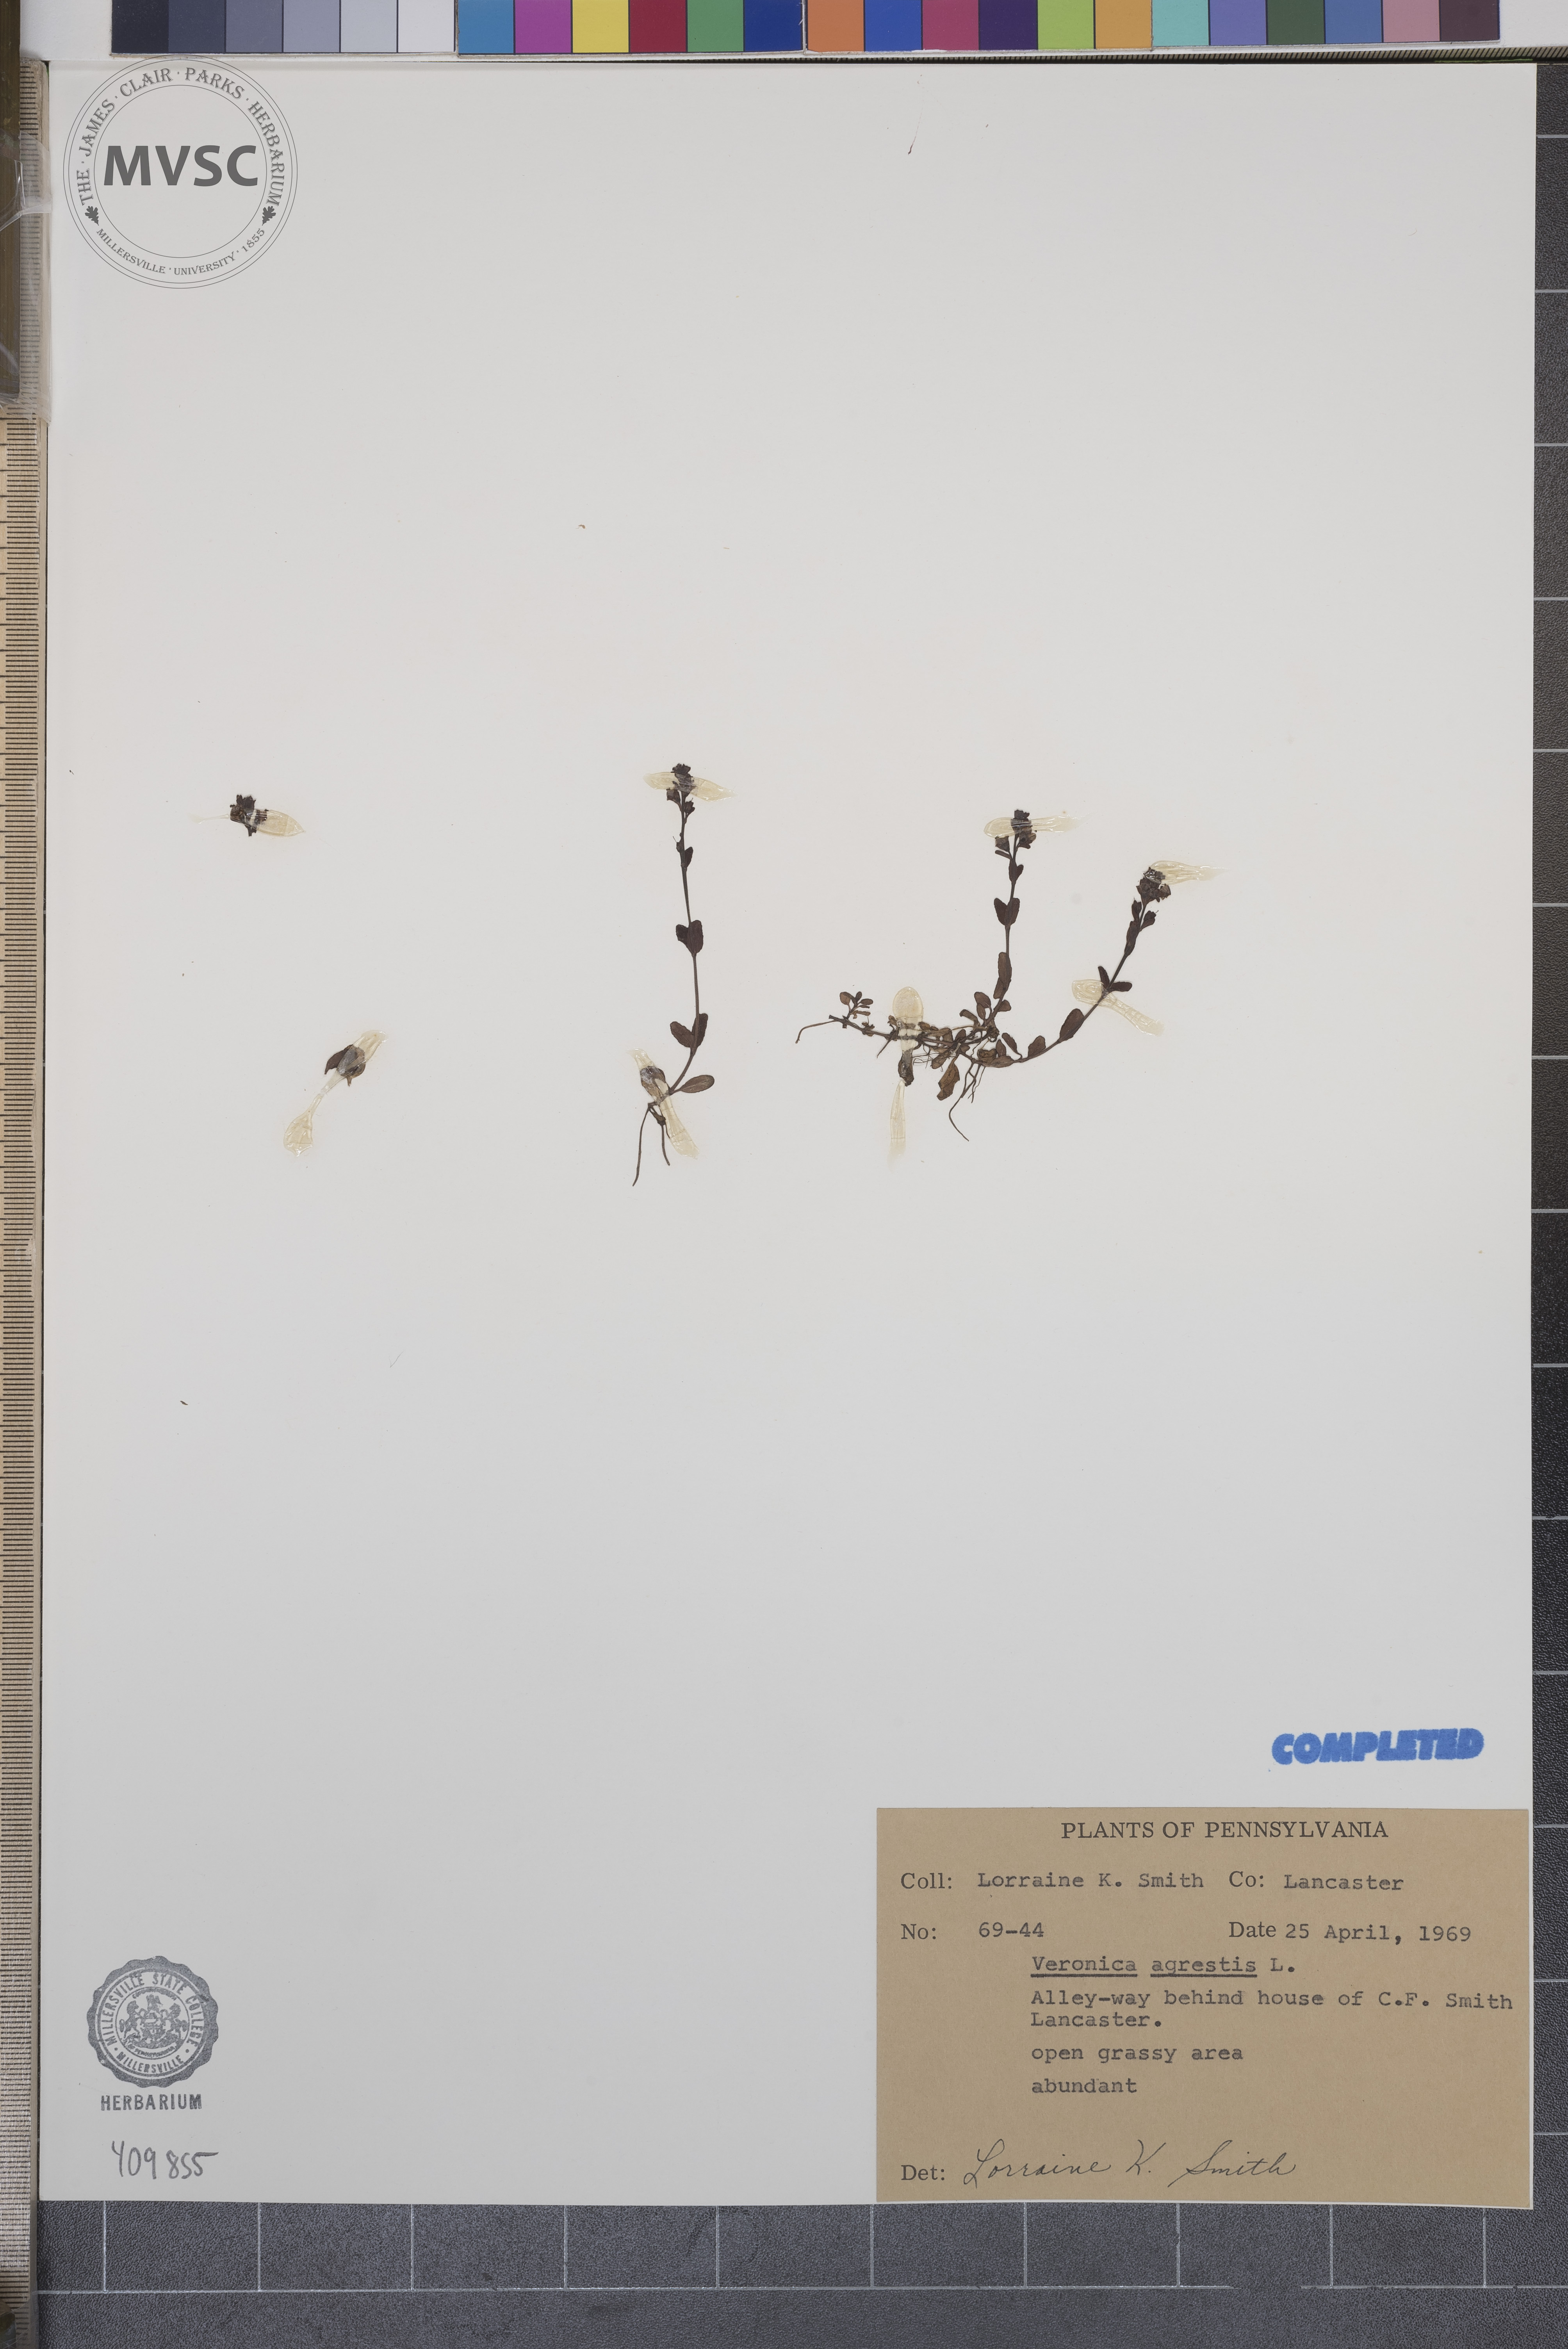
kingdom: Plantae
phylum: Tracheophyta
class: Magnoliopsida
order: Lamiales
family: Plantaginaceae
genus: Veronica
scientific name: Veronica agrestis
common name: Green field-speedwell
